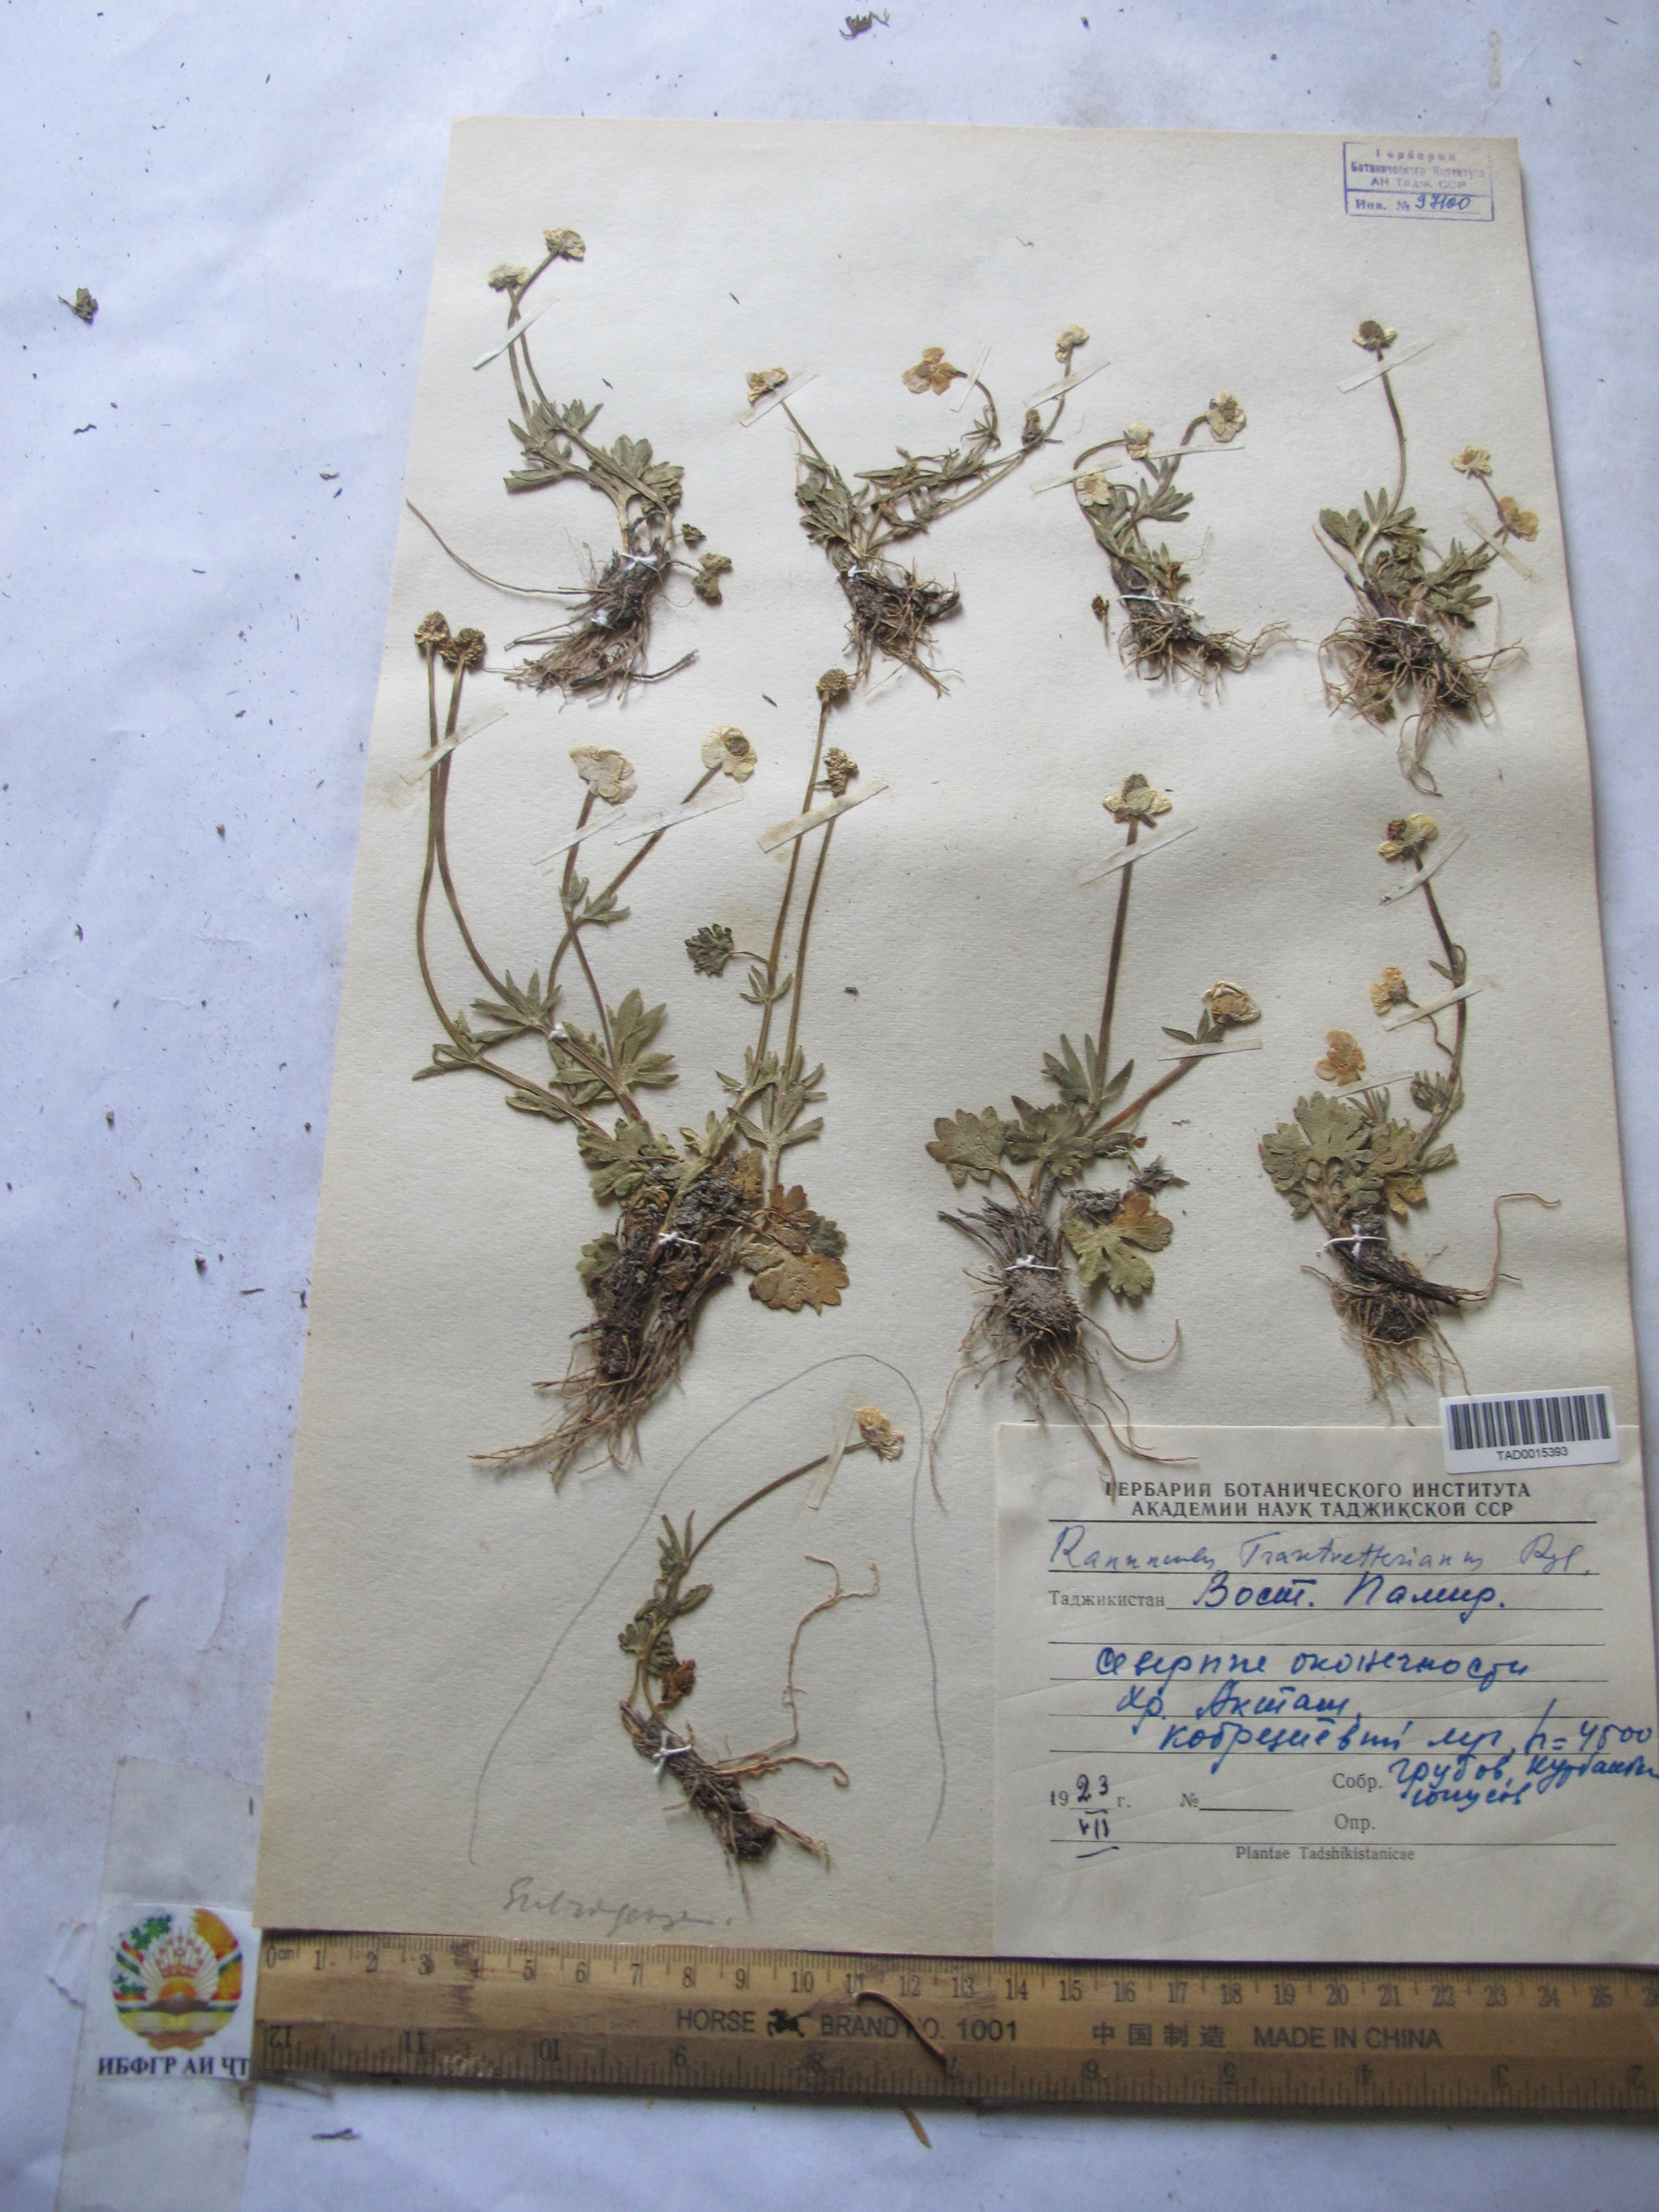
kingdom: Plantae
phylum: Tracheophyta
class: Magnoliopsida
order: Ranunculales
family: Ranunculaceae
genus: Ranunculus
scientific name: Ranunculus songaricus
